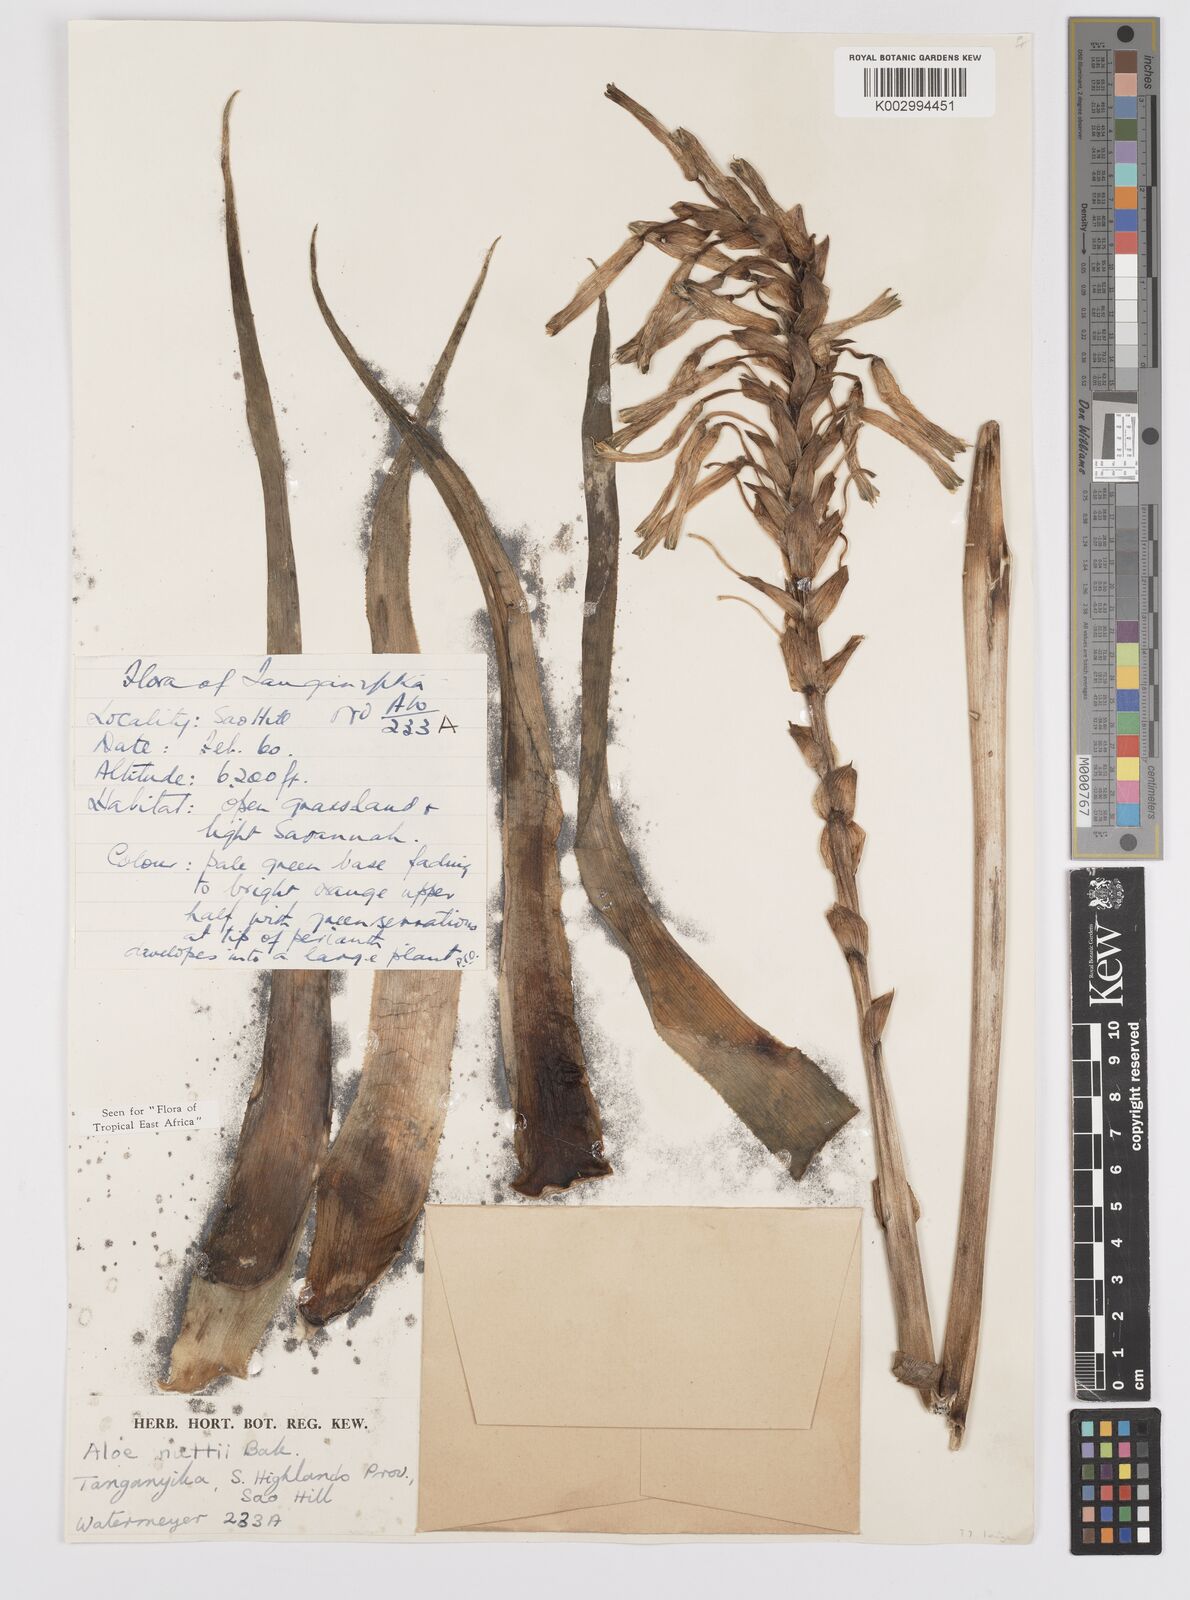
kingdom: Plantae
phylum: Tracheophyta
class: Liliopsida
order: Asparagales
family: Asphodelaceae
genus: Aloe
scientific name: Aloe nuttii
